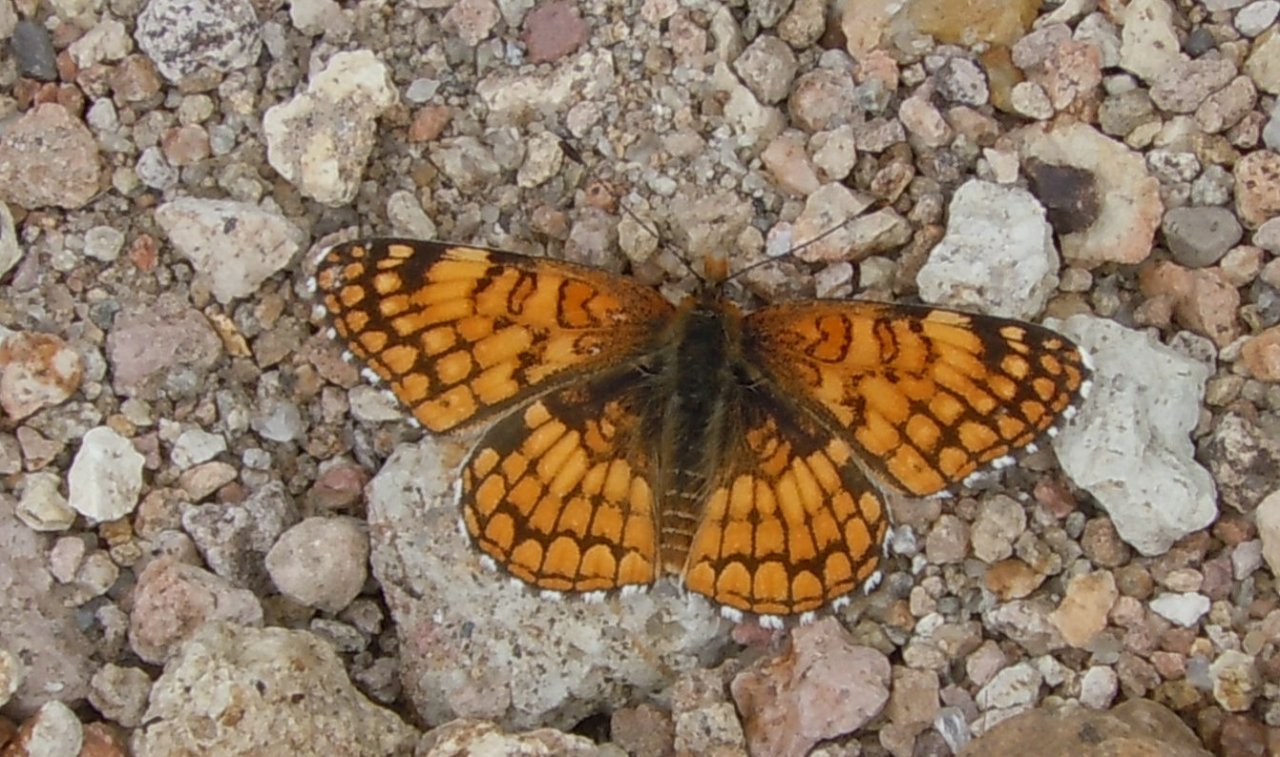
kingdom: Animalia
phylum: Arthropoda
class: Insecta
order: Lepidoptera
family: Nymphalidae
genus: Chlosyne
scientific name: Chlosyne acastus
